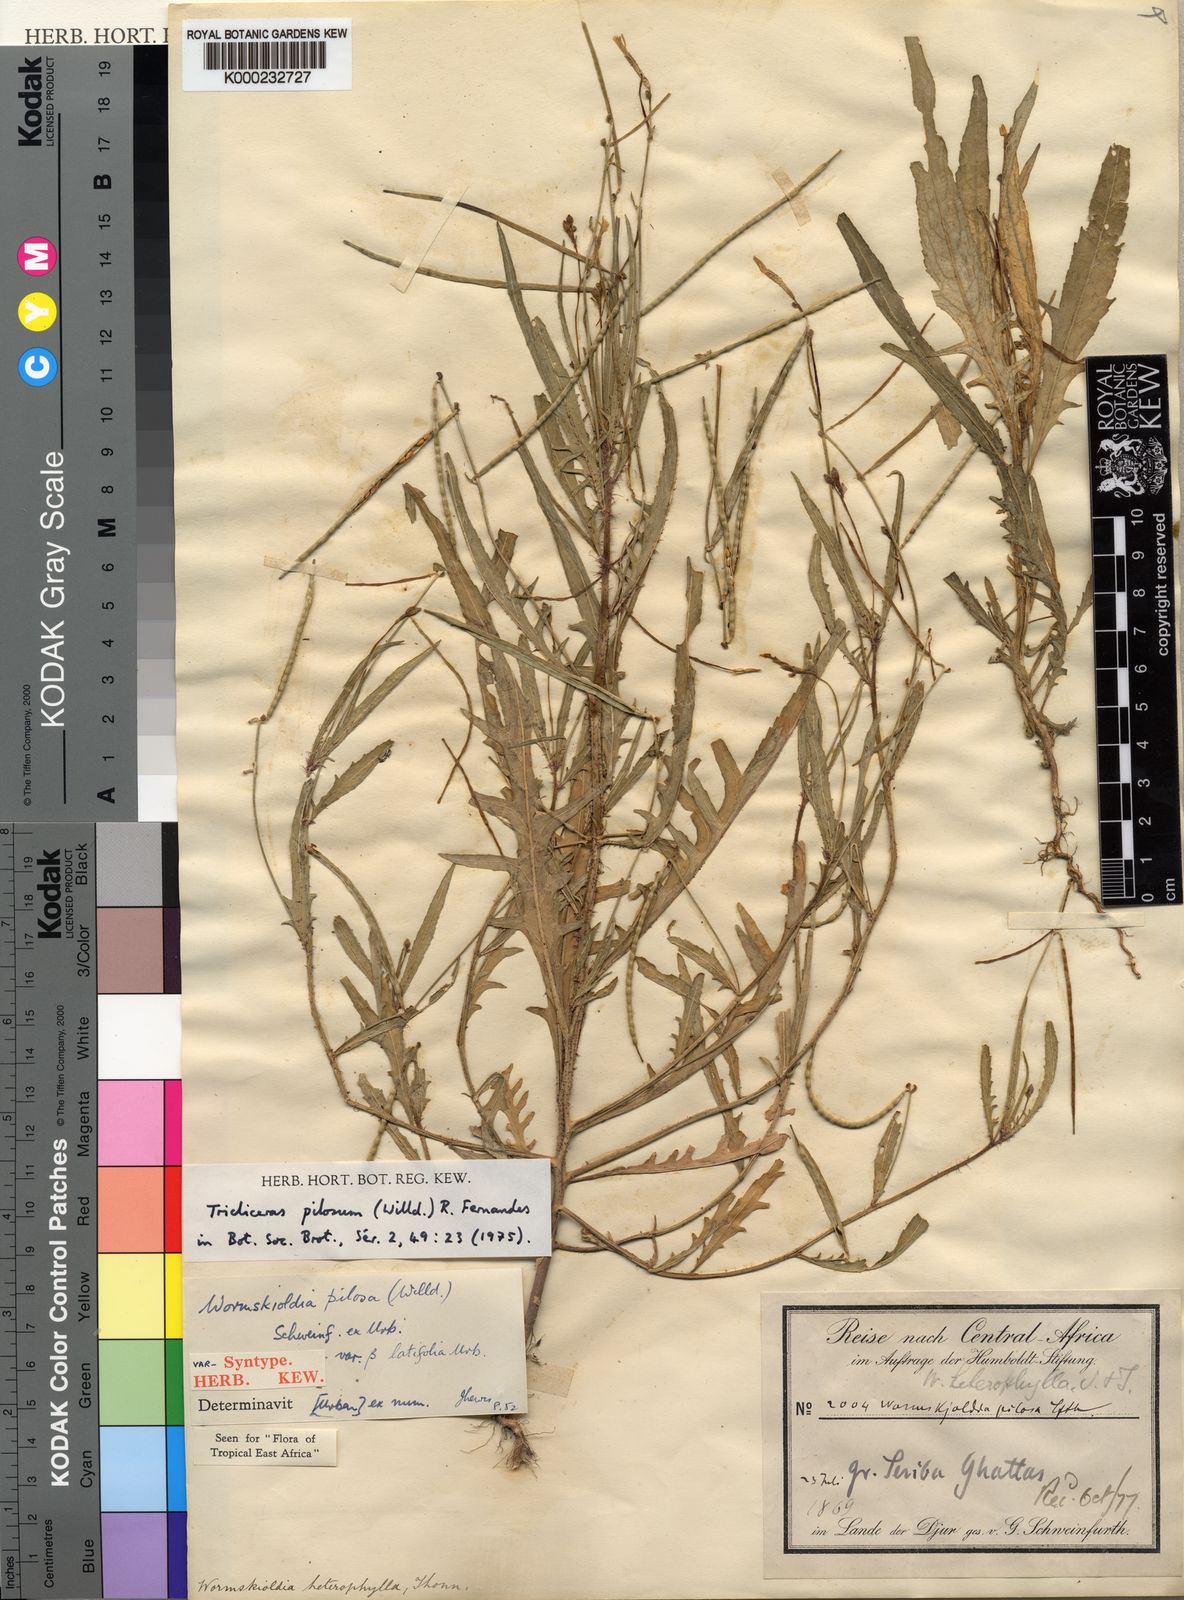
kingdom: Plantae
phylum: Tracheophyta
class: Magnoliopsida
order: Malpighiales
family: Turneraceae
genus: Tricliceras
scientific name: Tricliceras pilosum
